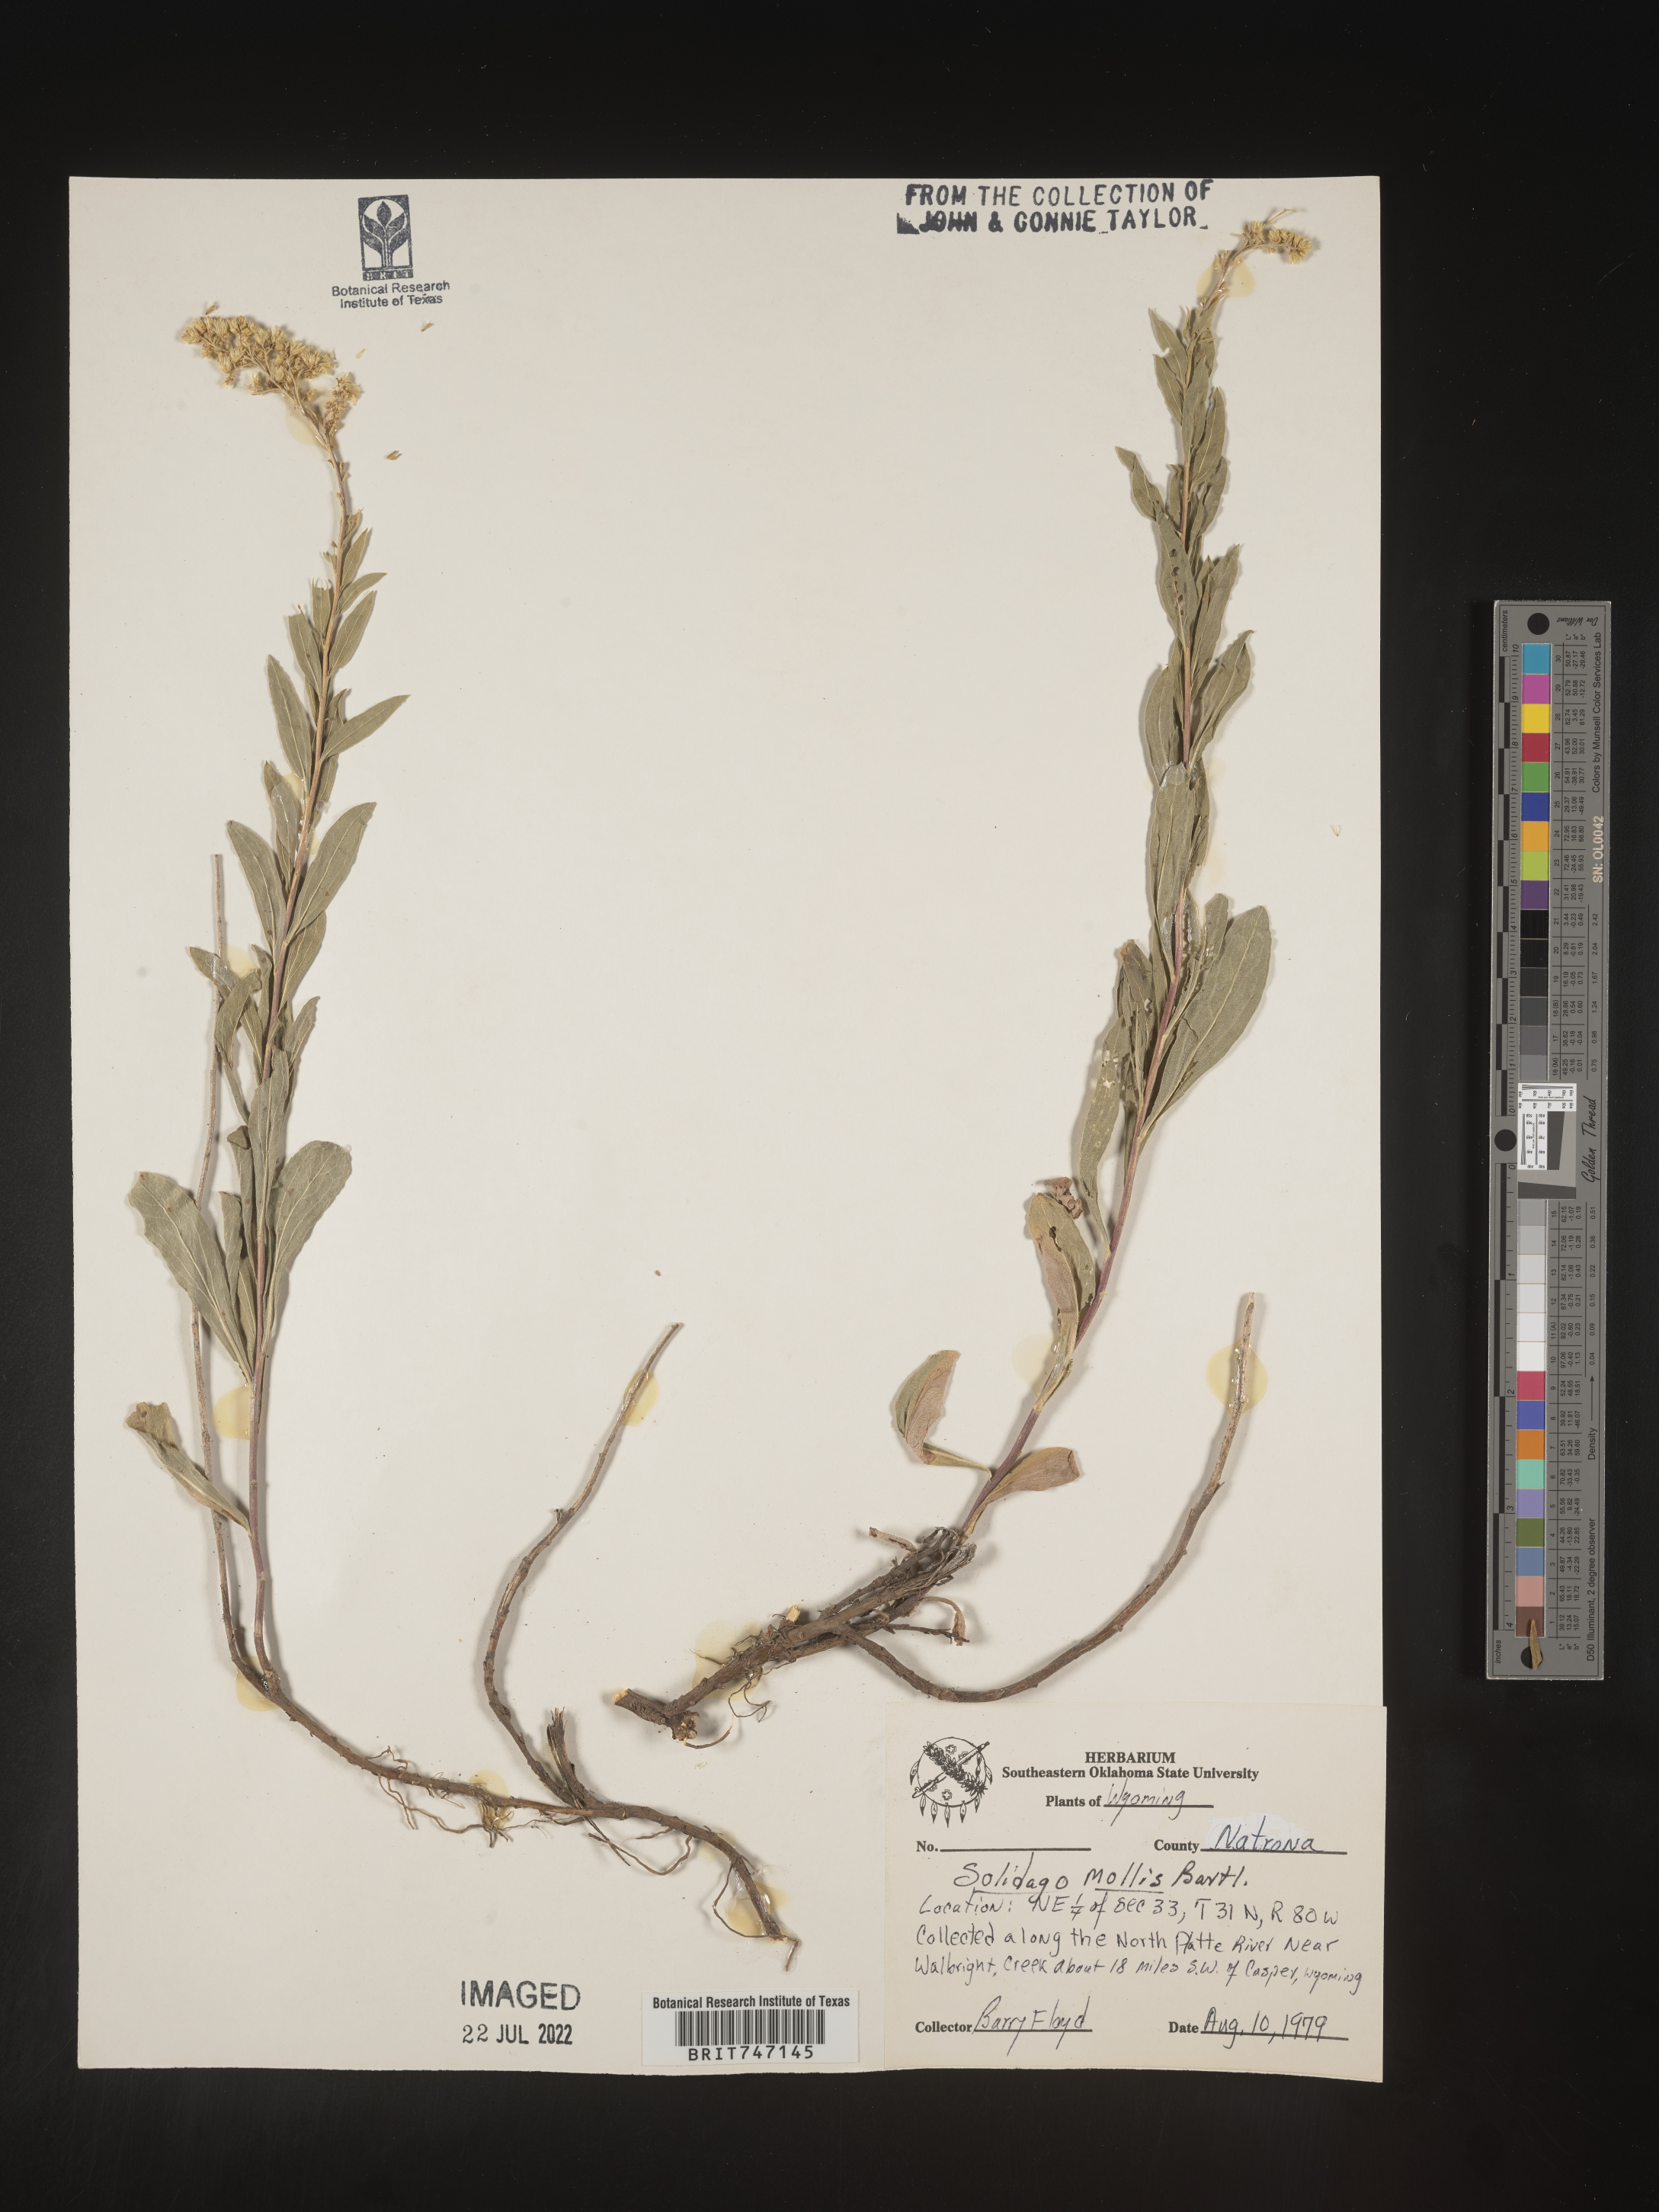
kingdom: Plantae
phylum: Tracheophyta
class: Magnoliopsida
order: Asterales
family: Asteraceae
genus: Solidago
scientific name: Solidago mollis
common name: Ashly goldenrod
